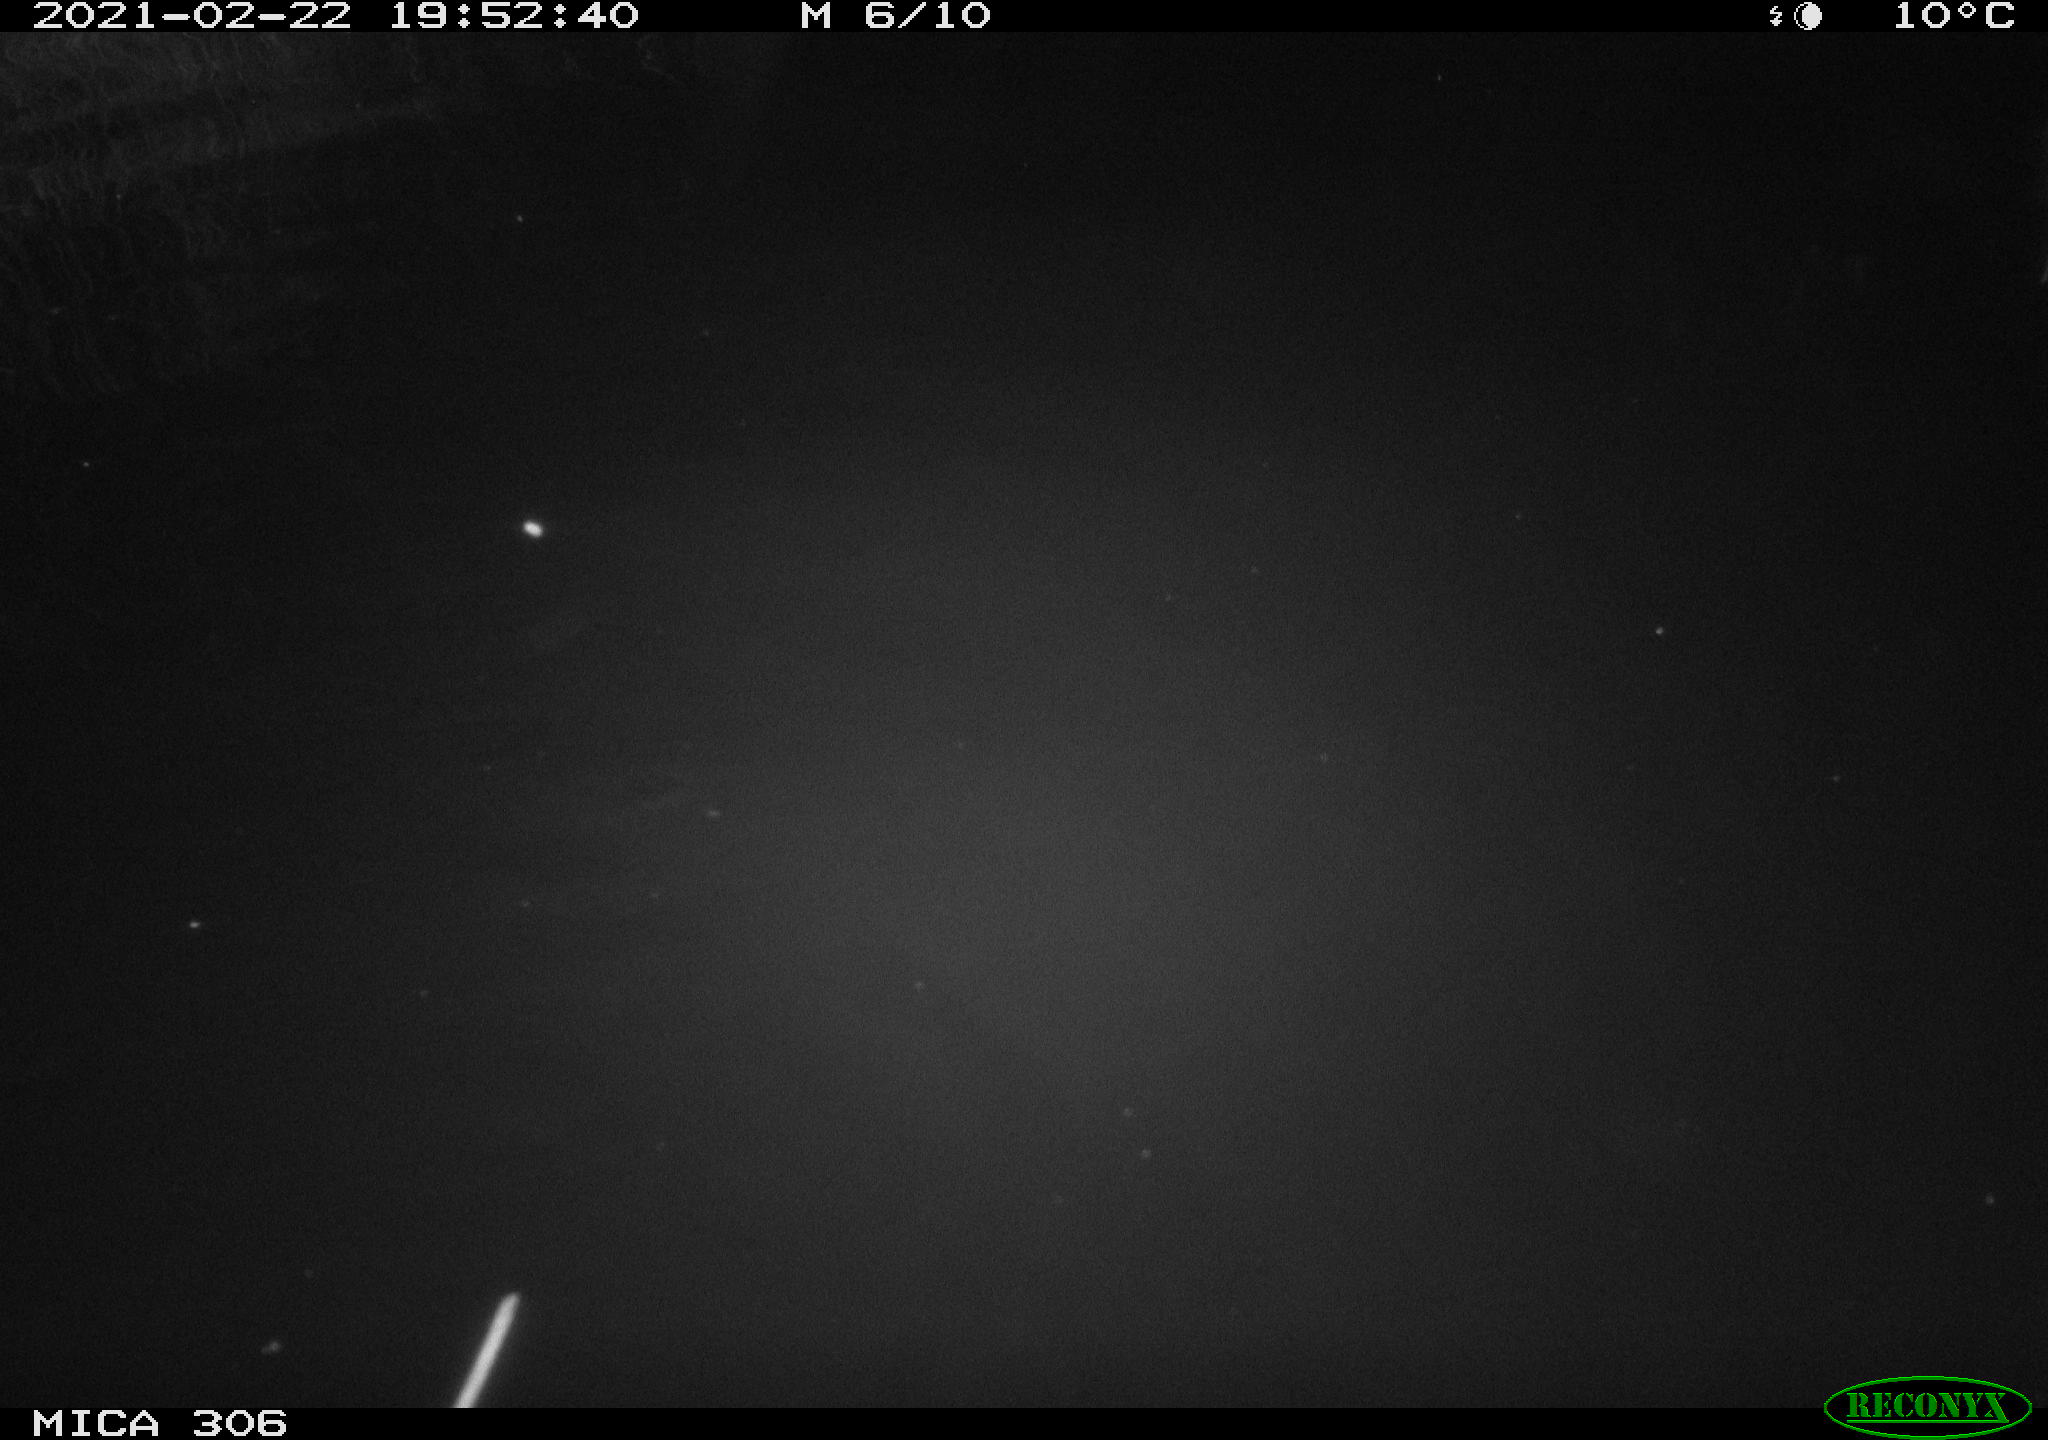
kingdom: Animalia
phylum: Chordata
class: Mammalia
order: Rodentia
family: Cricetidae
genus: Ondatra
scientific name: Ondatra zibethicus
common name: Muskrat
